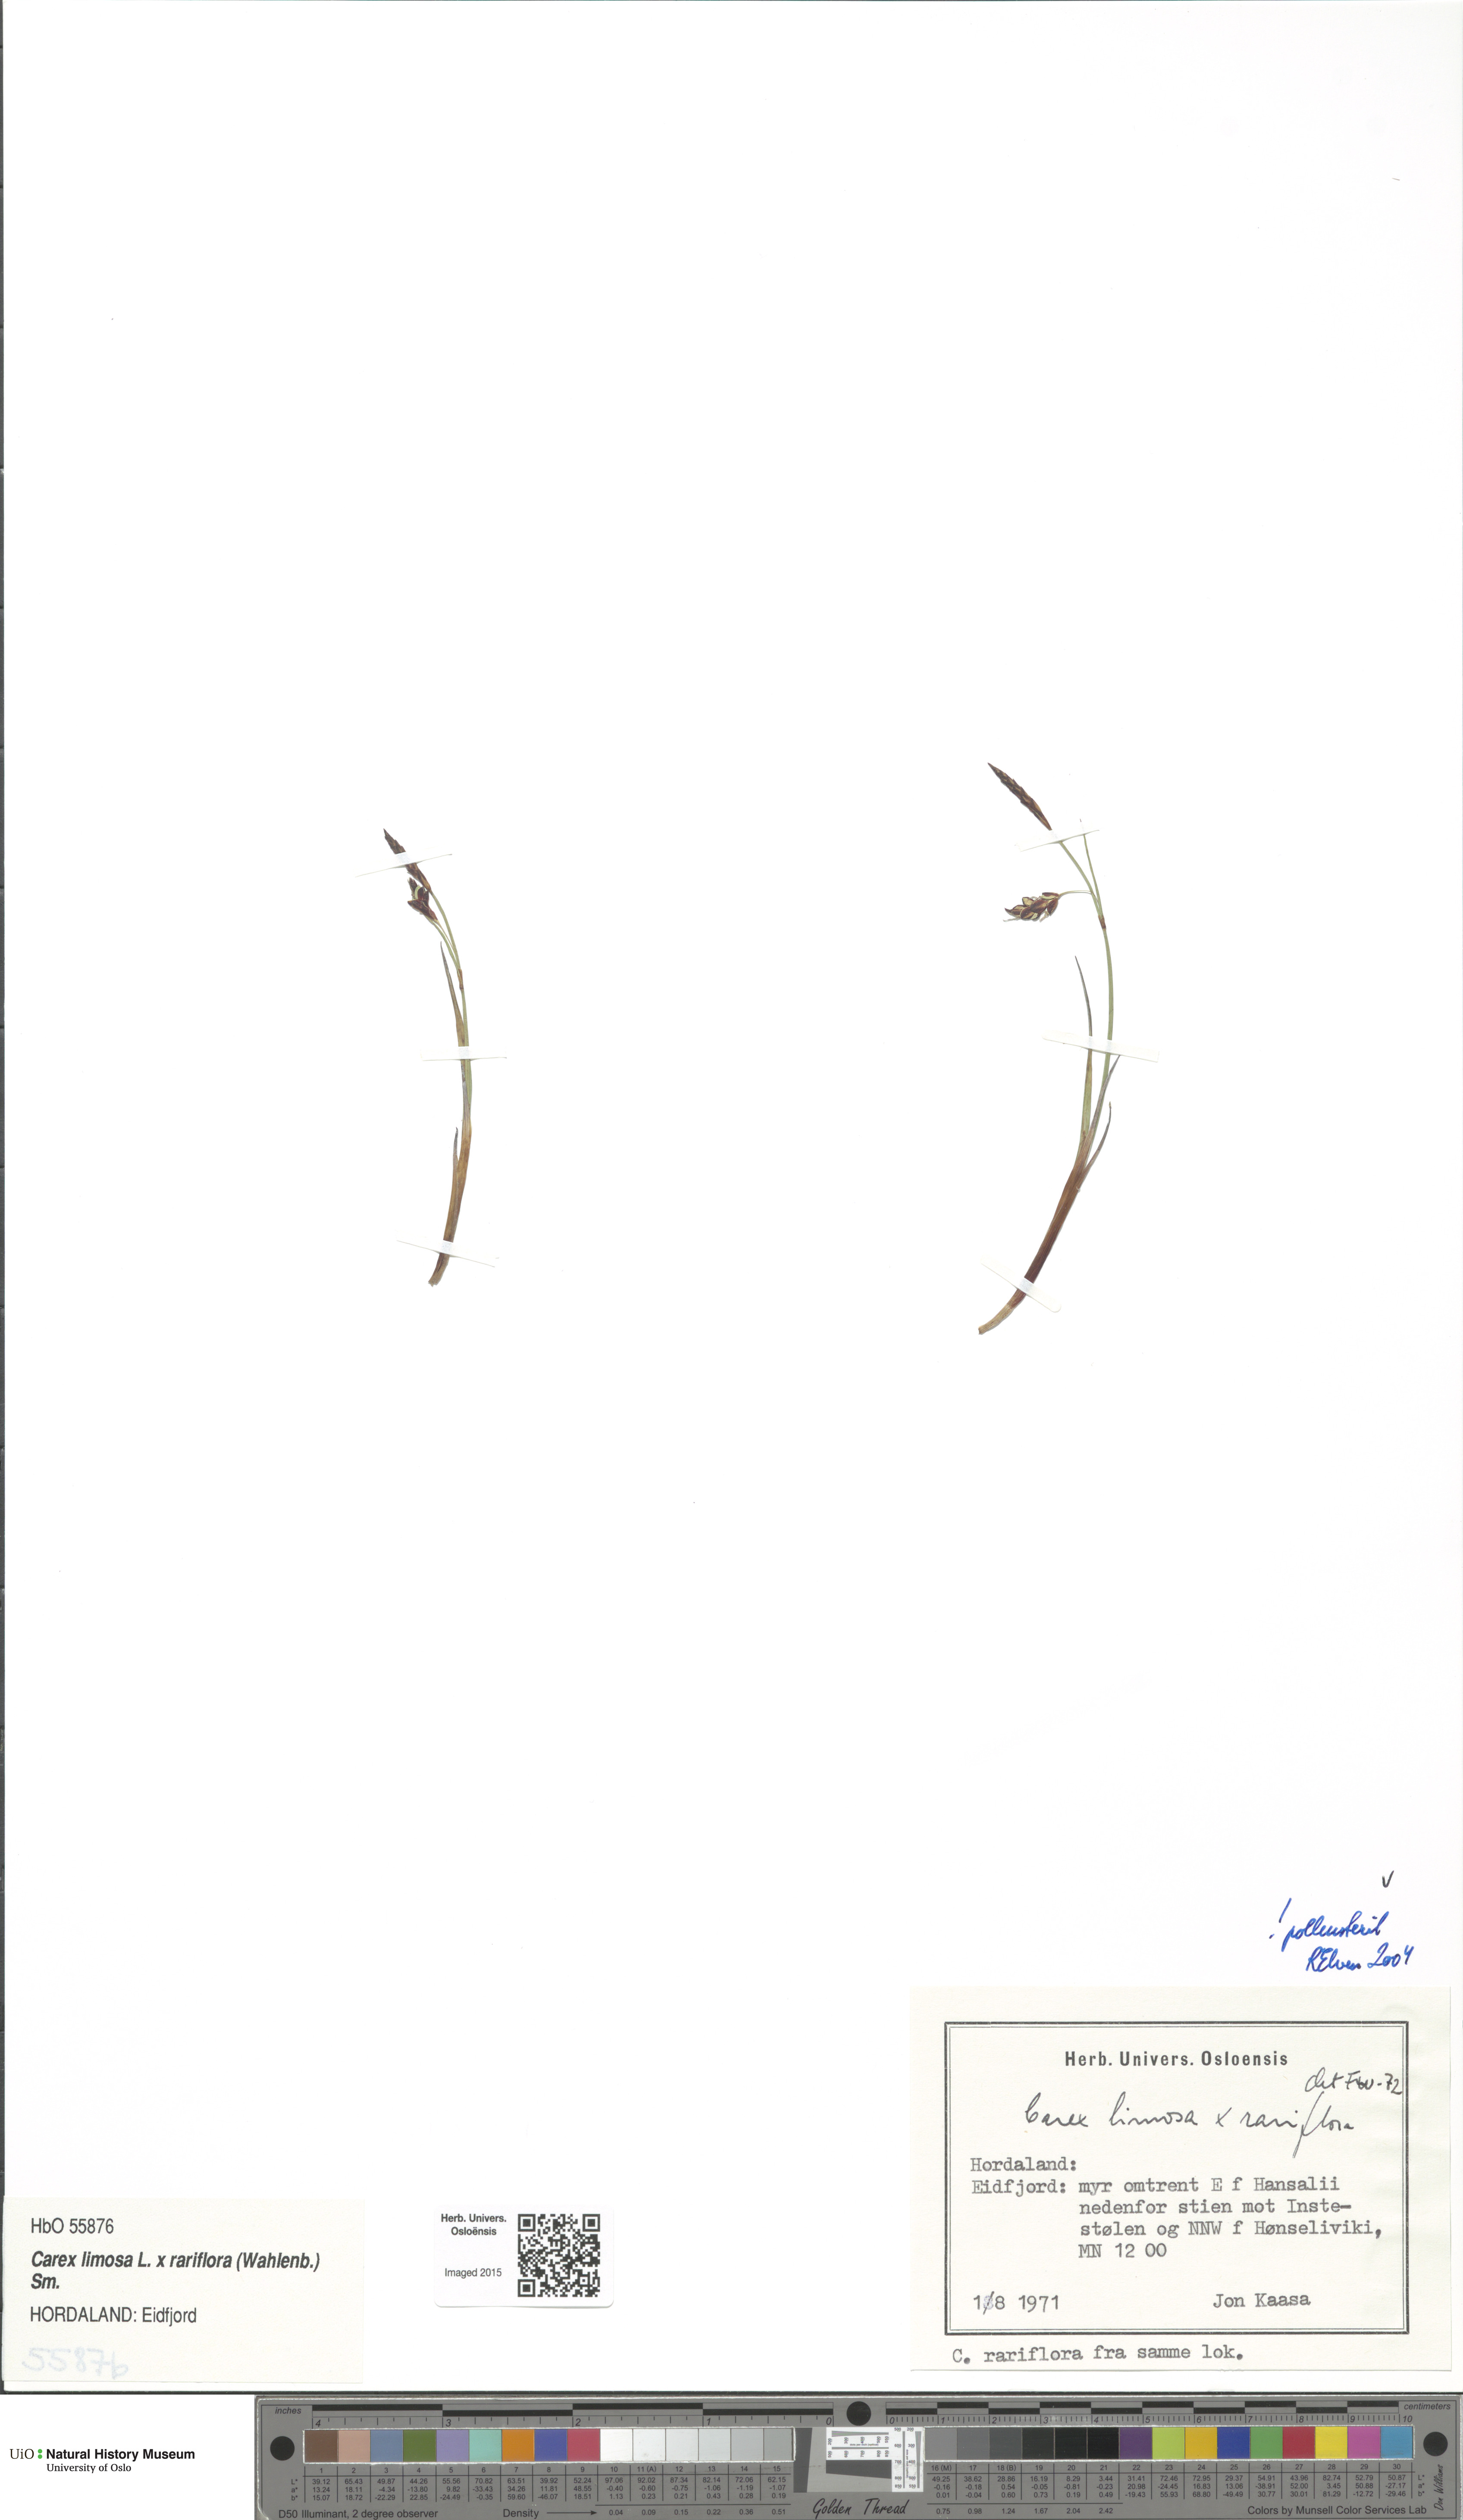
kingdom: Plantae
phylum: Tracheophyta
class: Liliopsida
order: Poales
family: Cyperaceae
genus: Carex
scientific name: Carex
